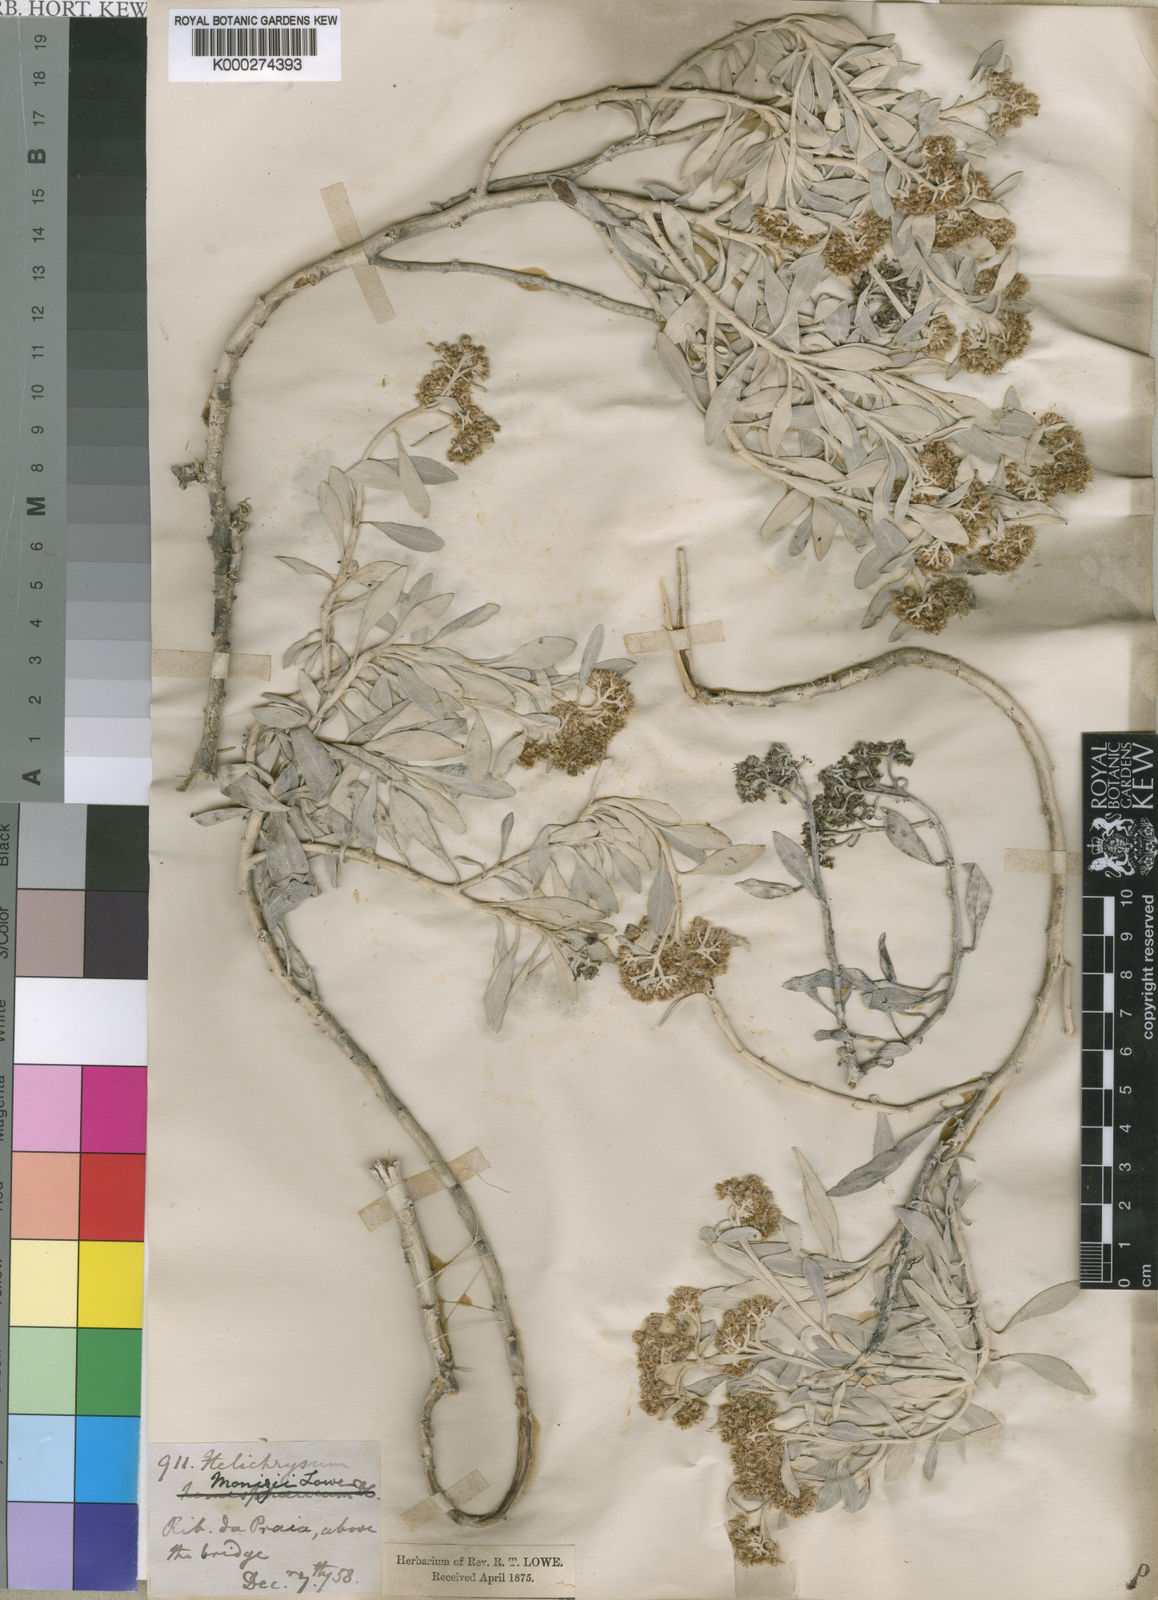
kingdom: Plantae
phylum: Tracheophyta
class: Magnoliopsida
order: Asterales
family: Asteraceae
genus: Helichrysum
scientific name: Helichrysum monizii
